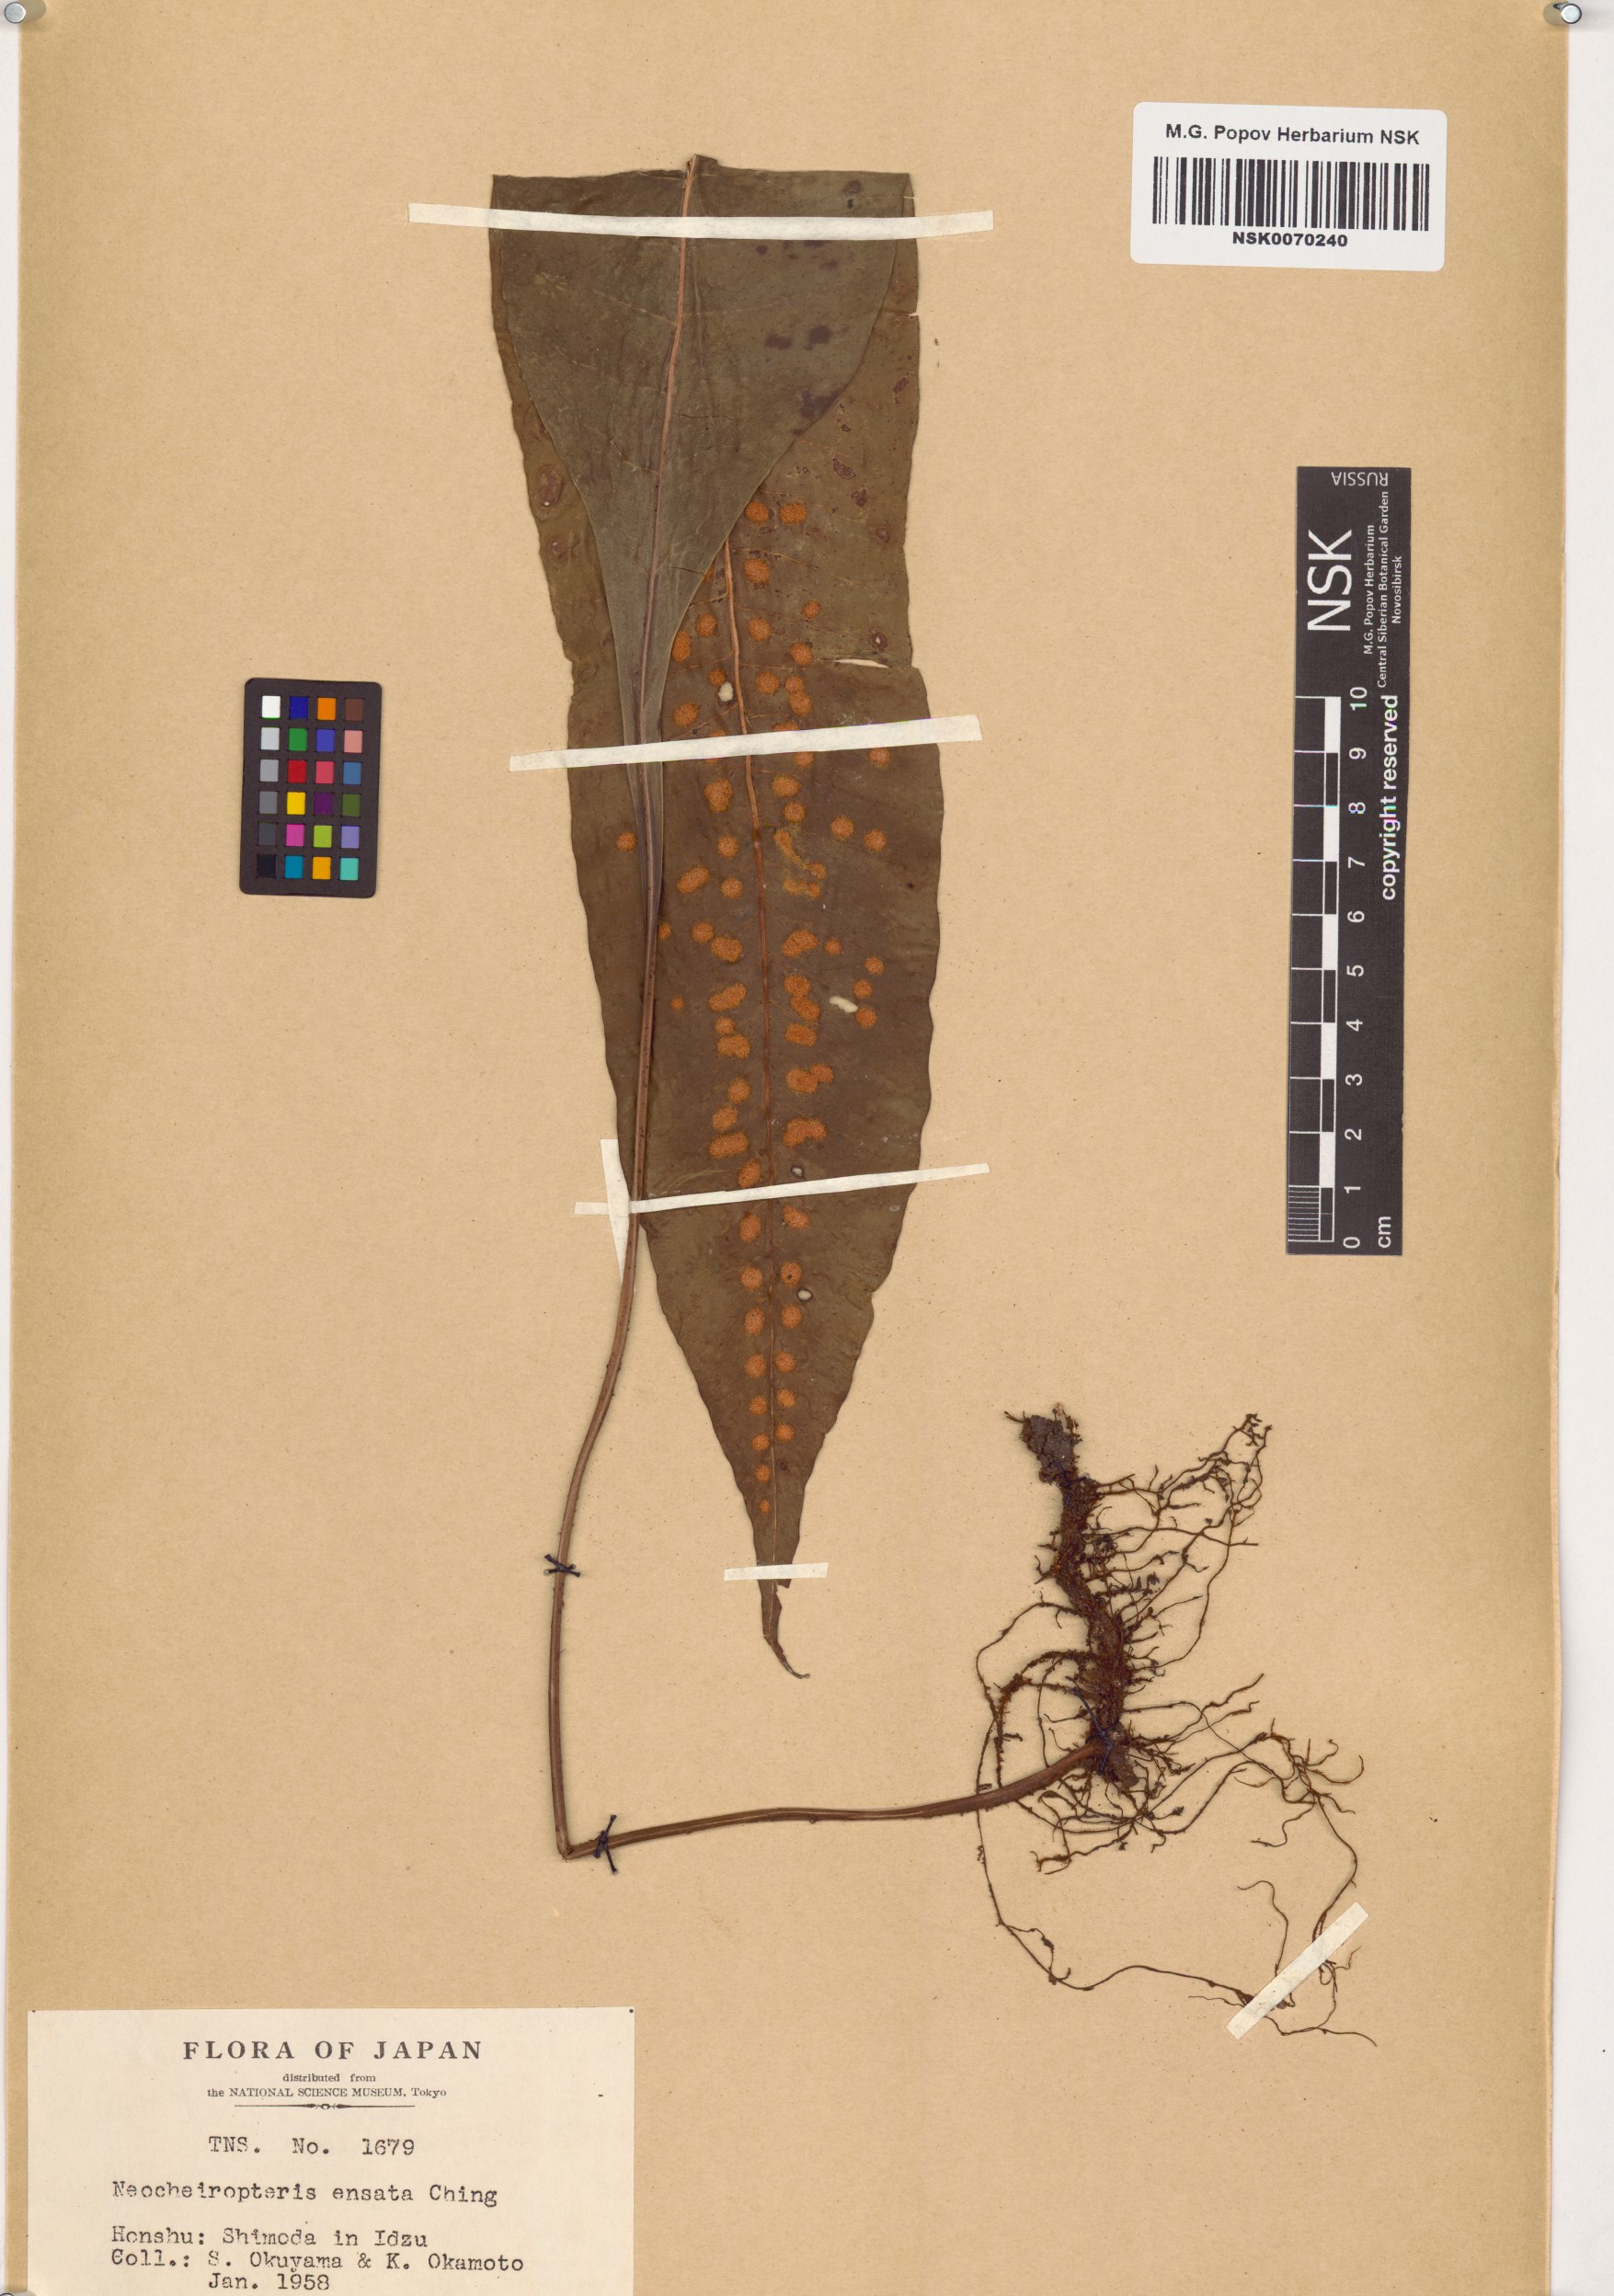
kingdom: Plantae
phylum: Tracheophyta
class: Polypodiopsida
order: Polypodiales
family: Polypodiaceae
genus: Lepisorus
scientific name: Lepisorus ensatus
